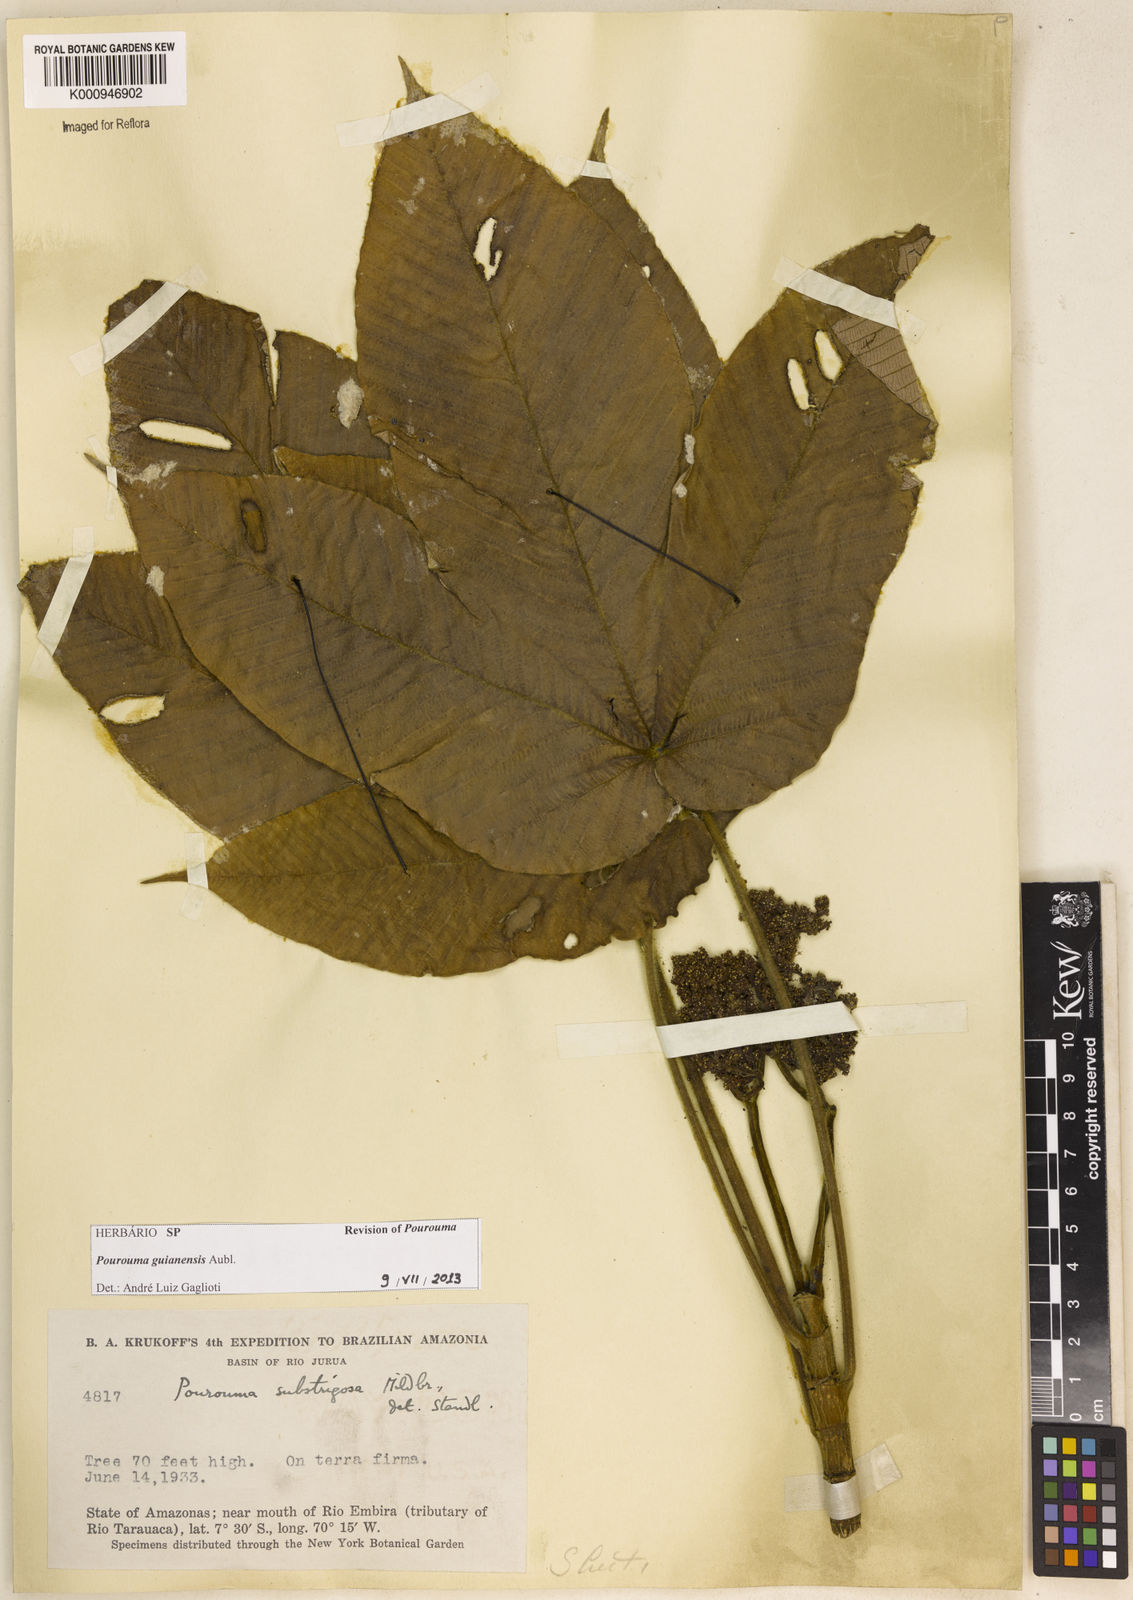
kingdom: Plantae
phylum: Tracheophyta
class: Magnoliopsida
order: Rosales
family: Urticaceae
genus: Pourouma
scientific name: Pourouma guianensis
